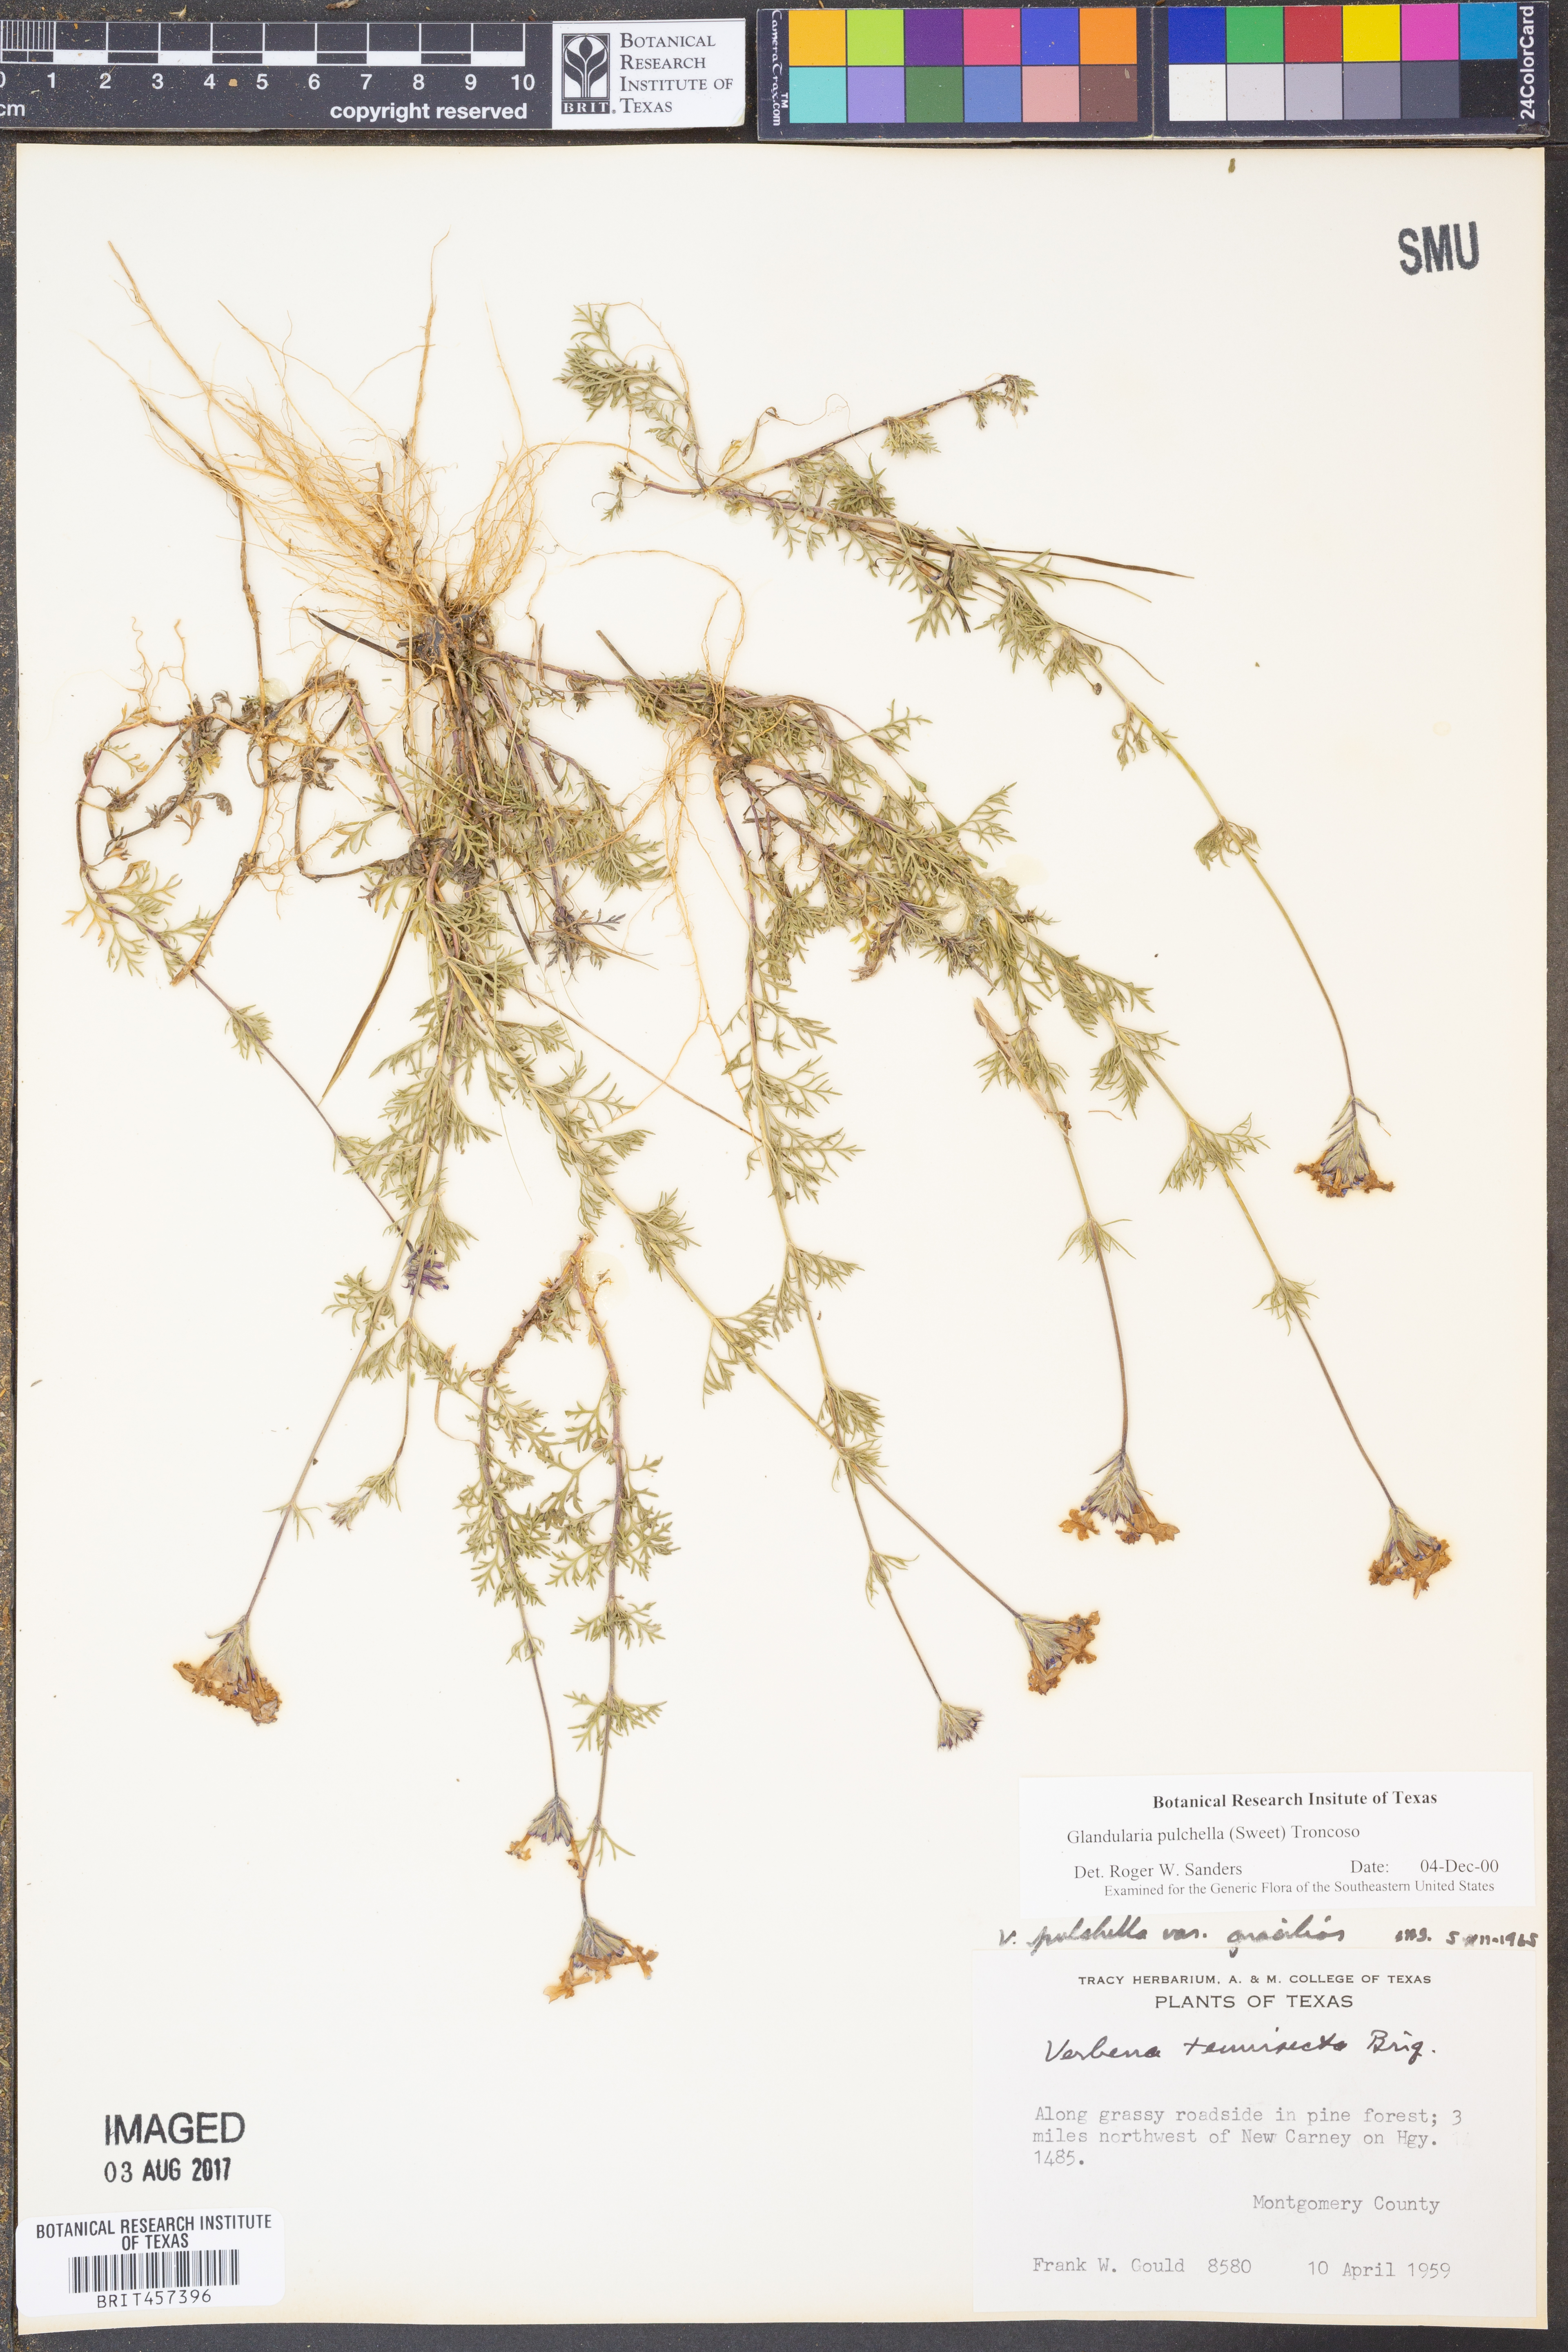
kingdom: Plantae
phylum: Tracheophyta
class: Magnoliopsida
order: Lamiales
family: Verbenaceae
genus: Verbena
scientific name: Verbena tenera
